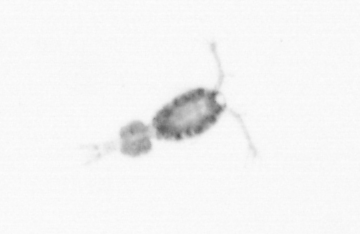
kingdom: Animalia
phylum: Arthropoda
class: Copepoda
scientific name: Copepoda
